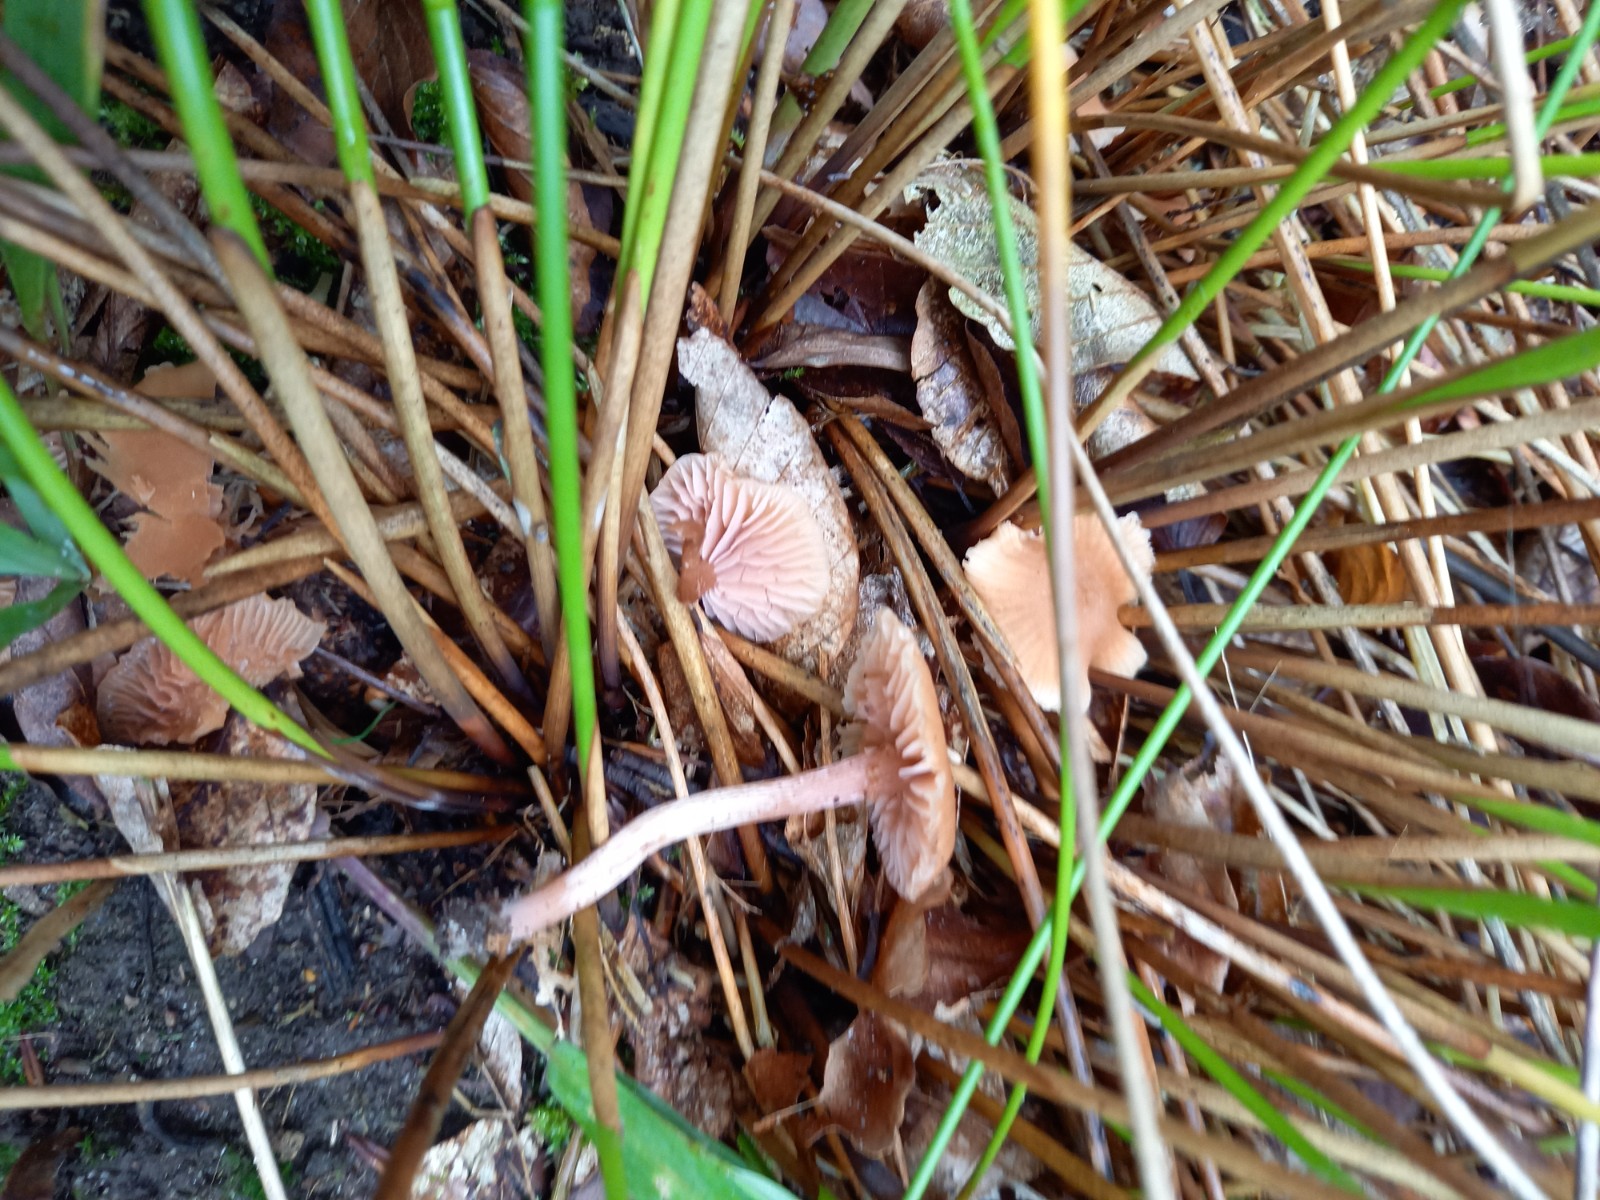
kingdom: Fungi
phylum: Basidiomycota
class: Agaricomycetes
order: Agaricales
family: Hydnangiaceae
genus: Laccaria
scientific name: Laccaria laccata
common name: rød ametysthat
